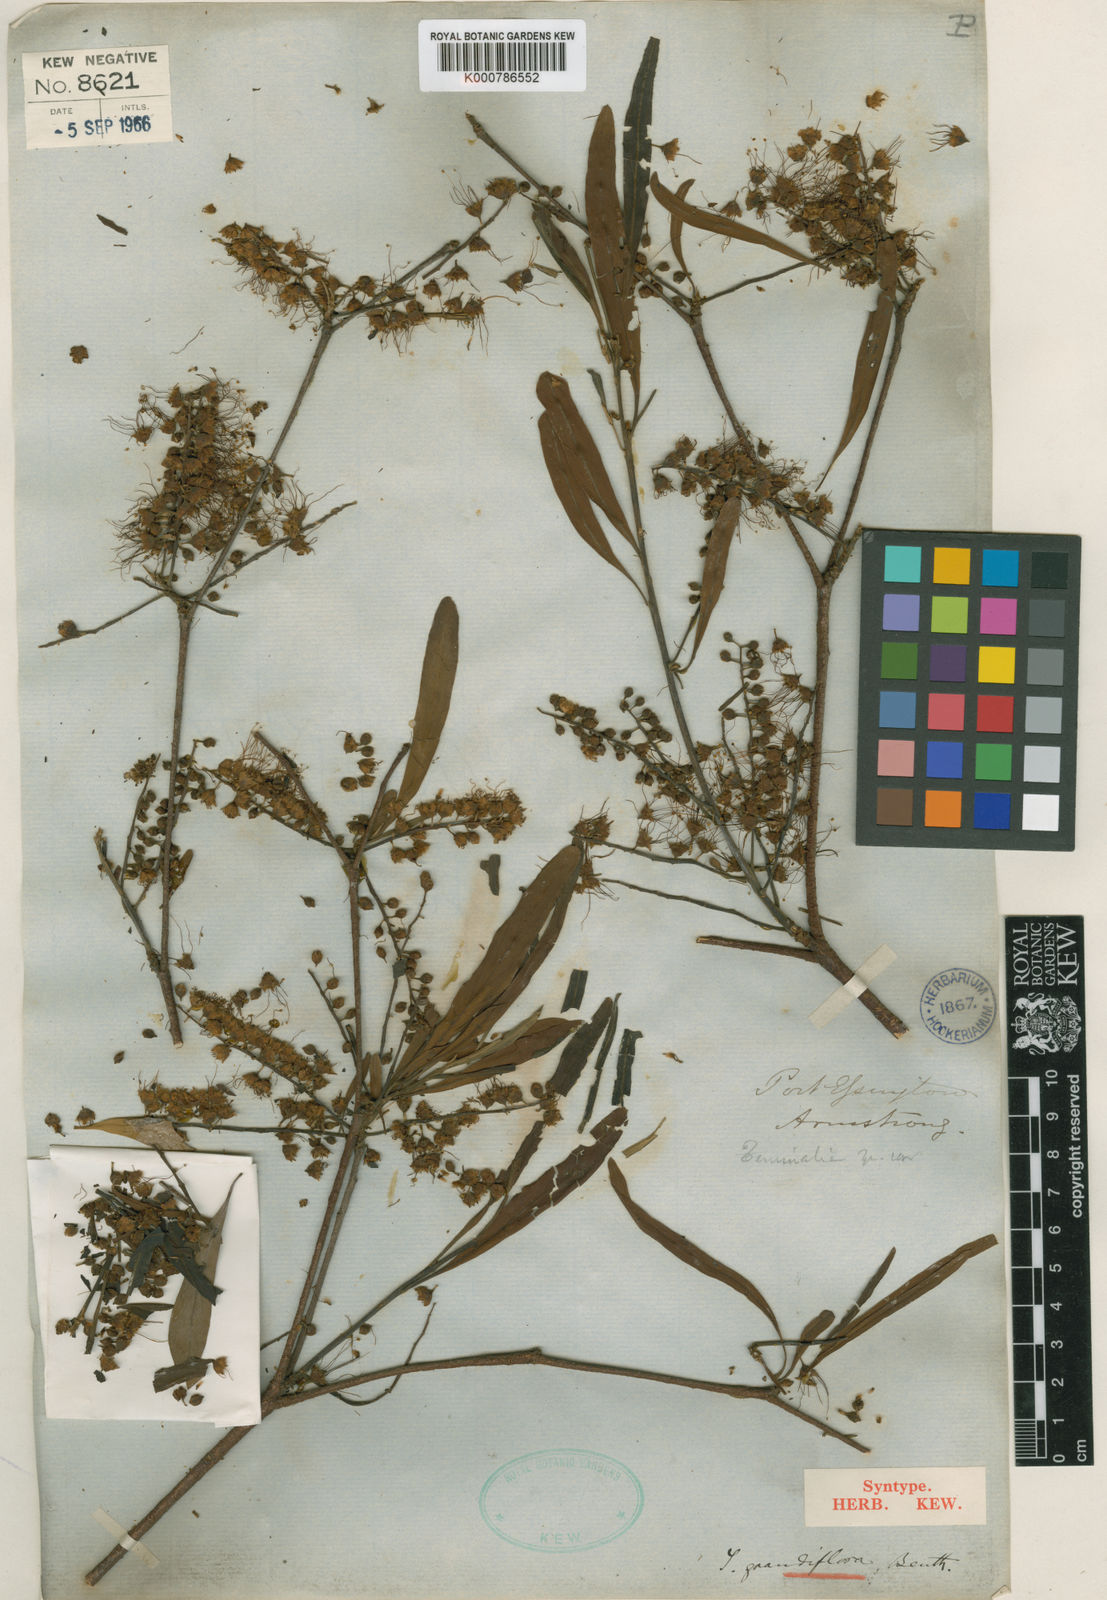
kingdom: Plantae
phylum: Tracheophyta
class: Magnoliopsida
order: Myrtales
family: Combretaceae
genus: Terminalia
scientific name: Terminalia grandiflora
